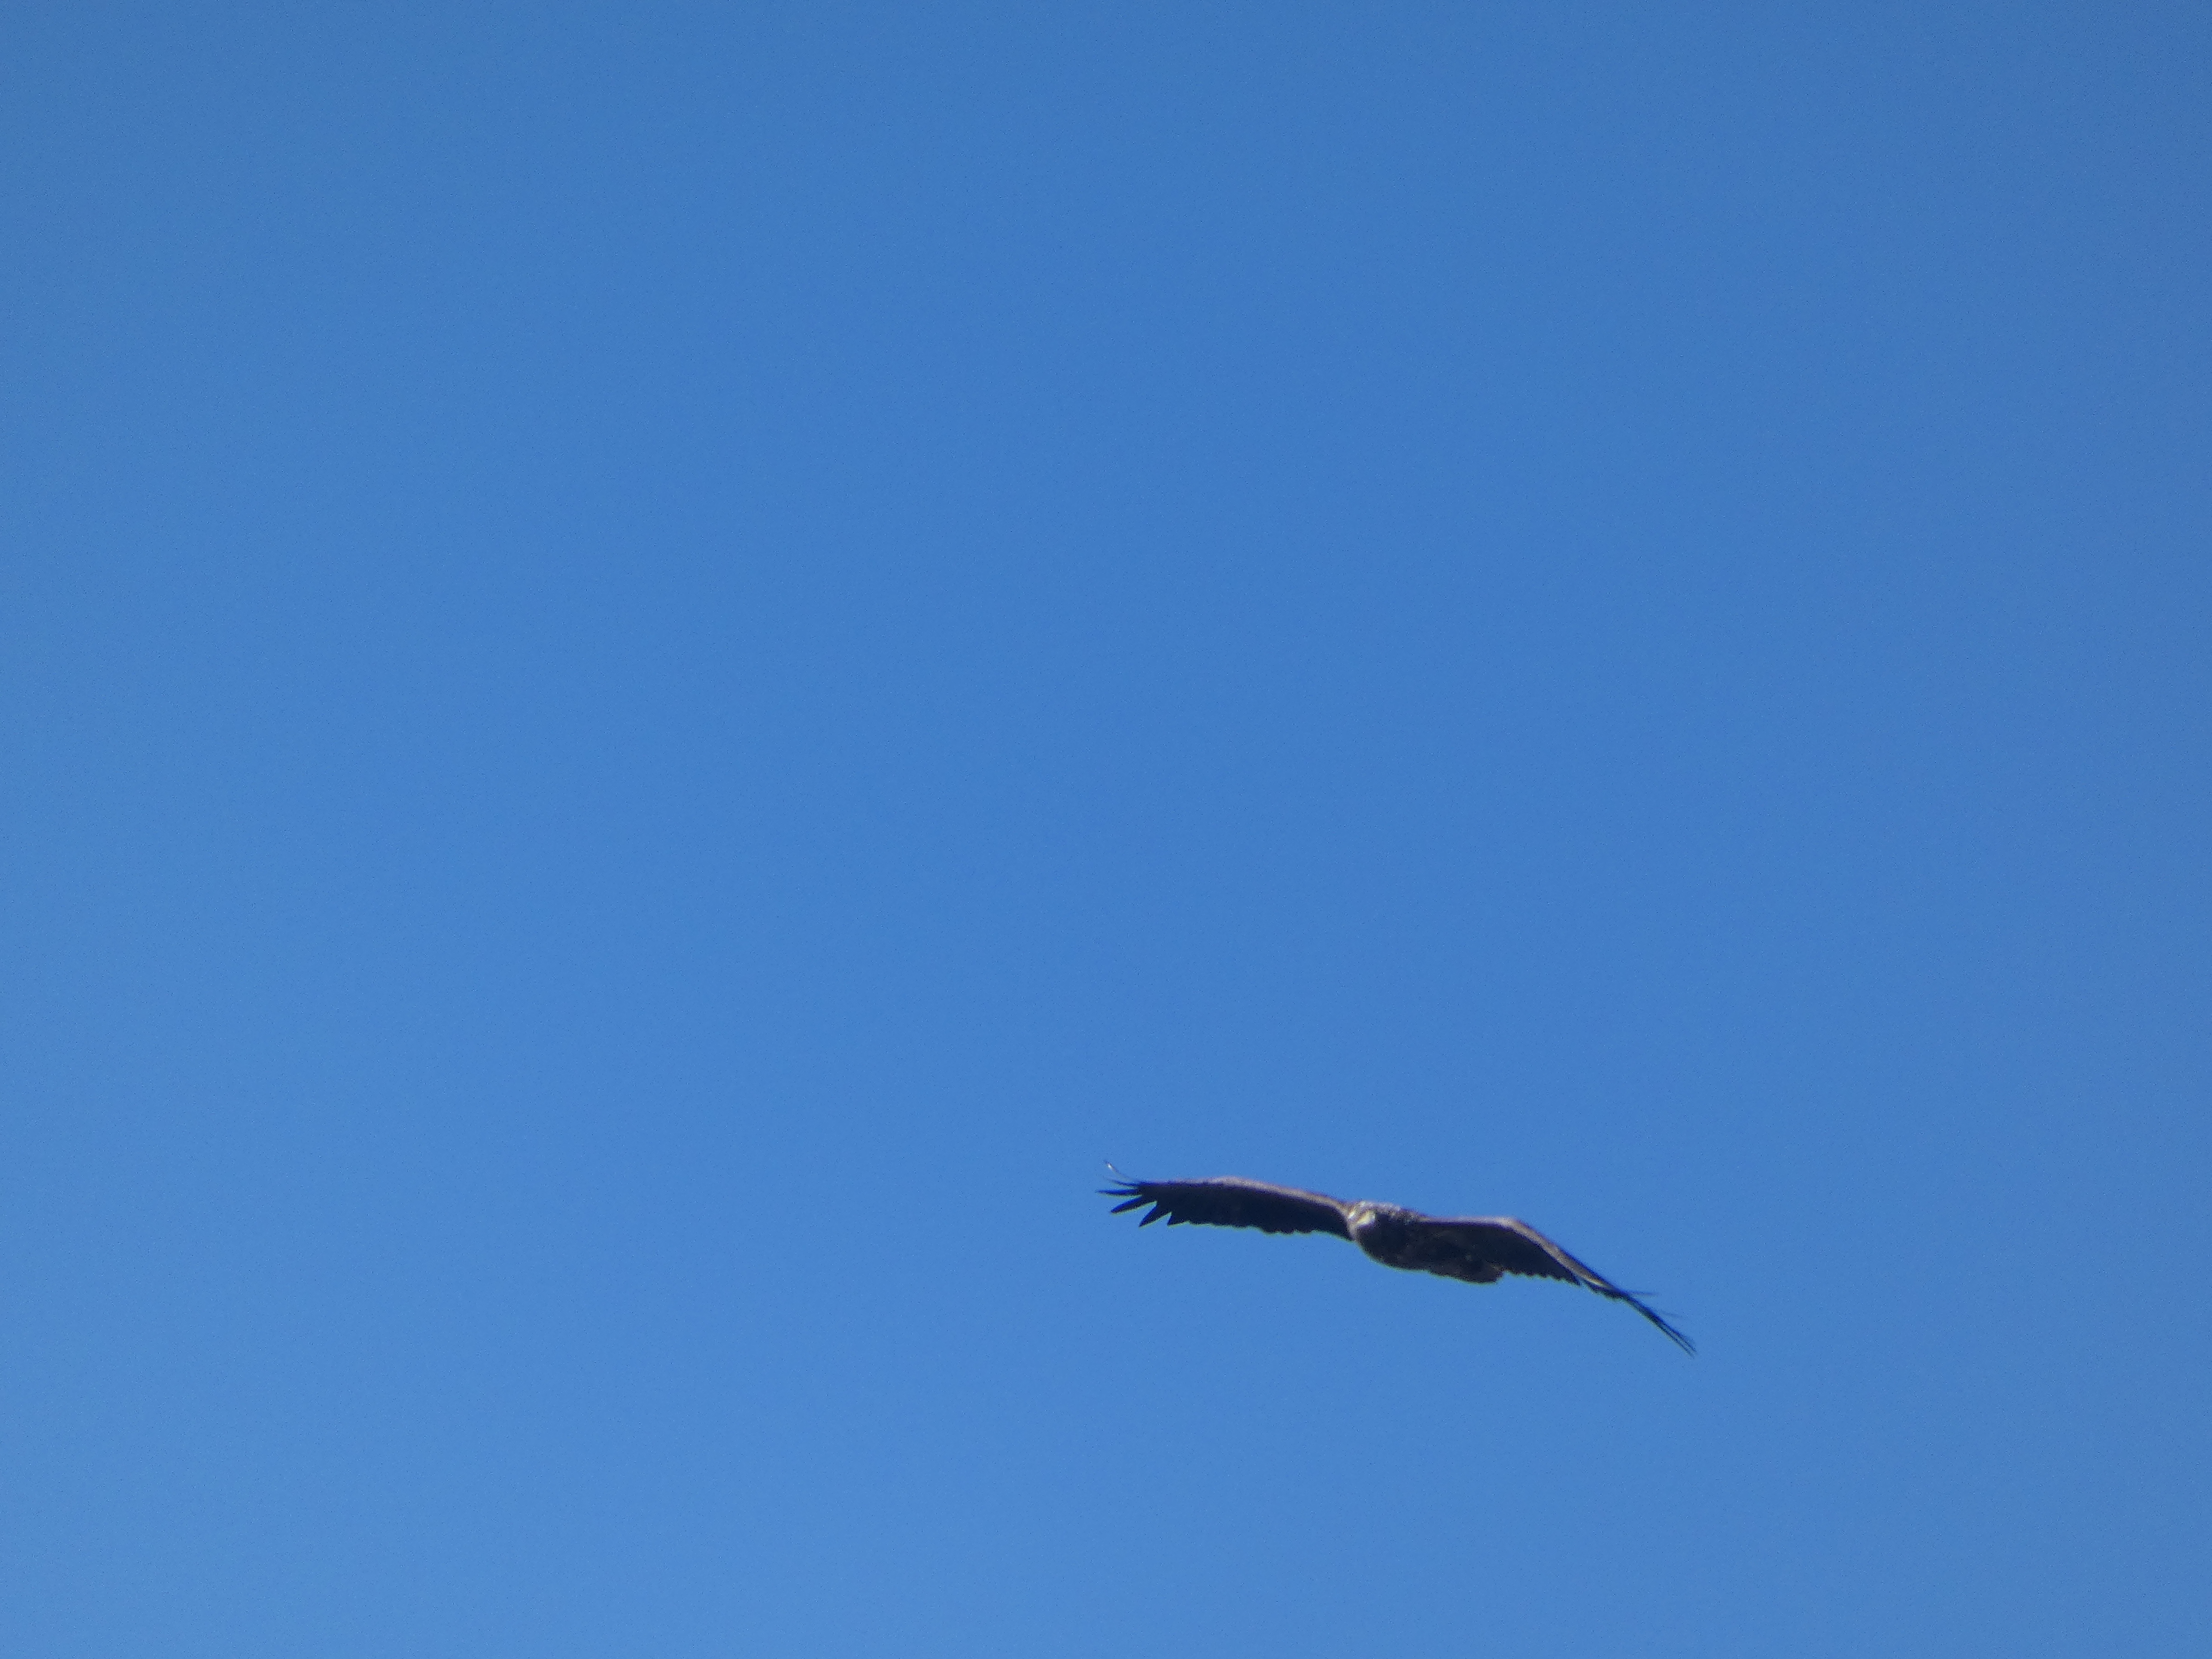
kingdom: Animalia
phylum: Chordata
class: Aves
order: Accipitriformes
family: Accipitridae
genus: Haliaeetus
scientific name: Haliaeetus albicilla
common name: Havørn
